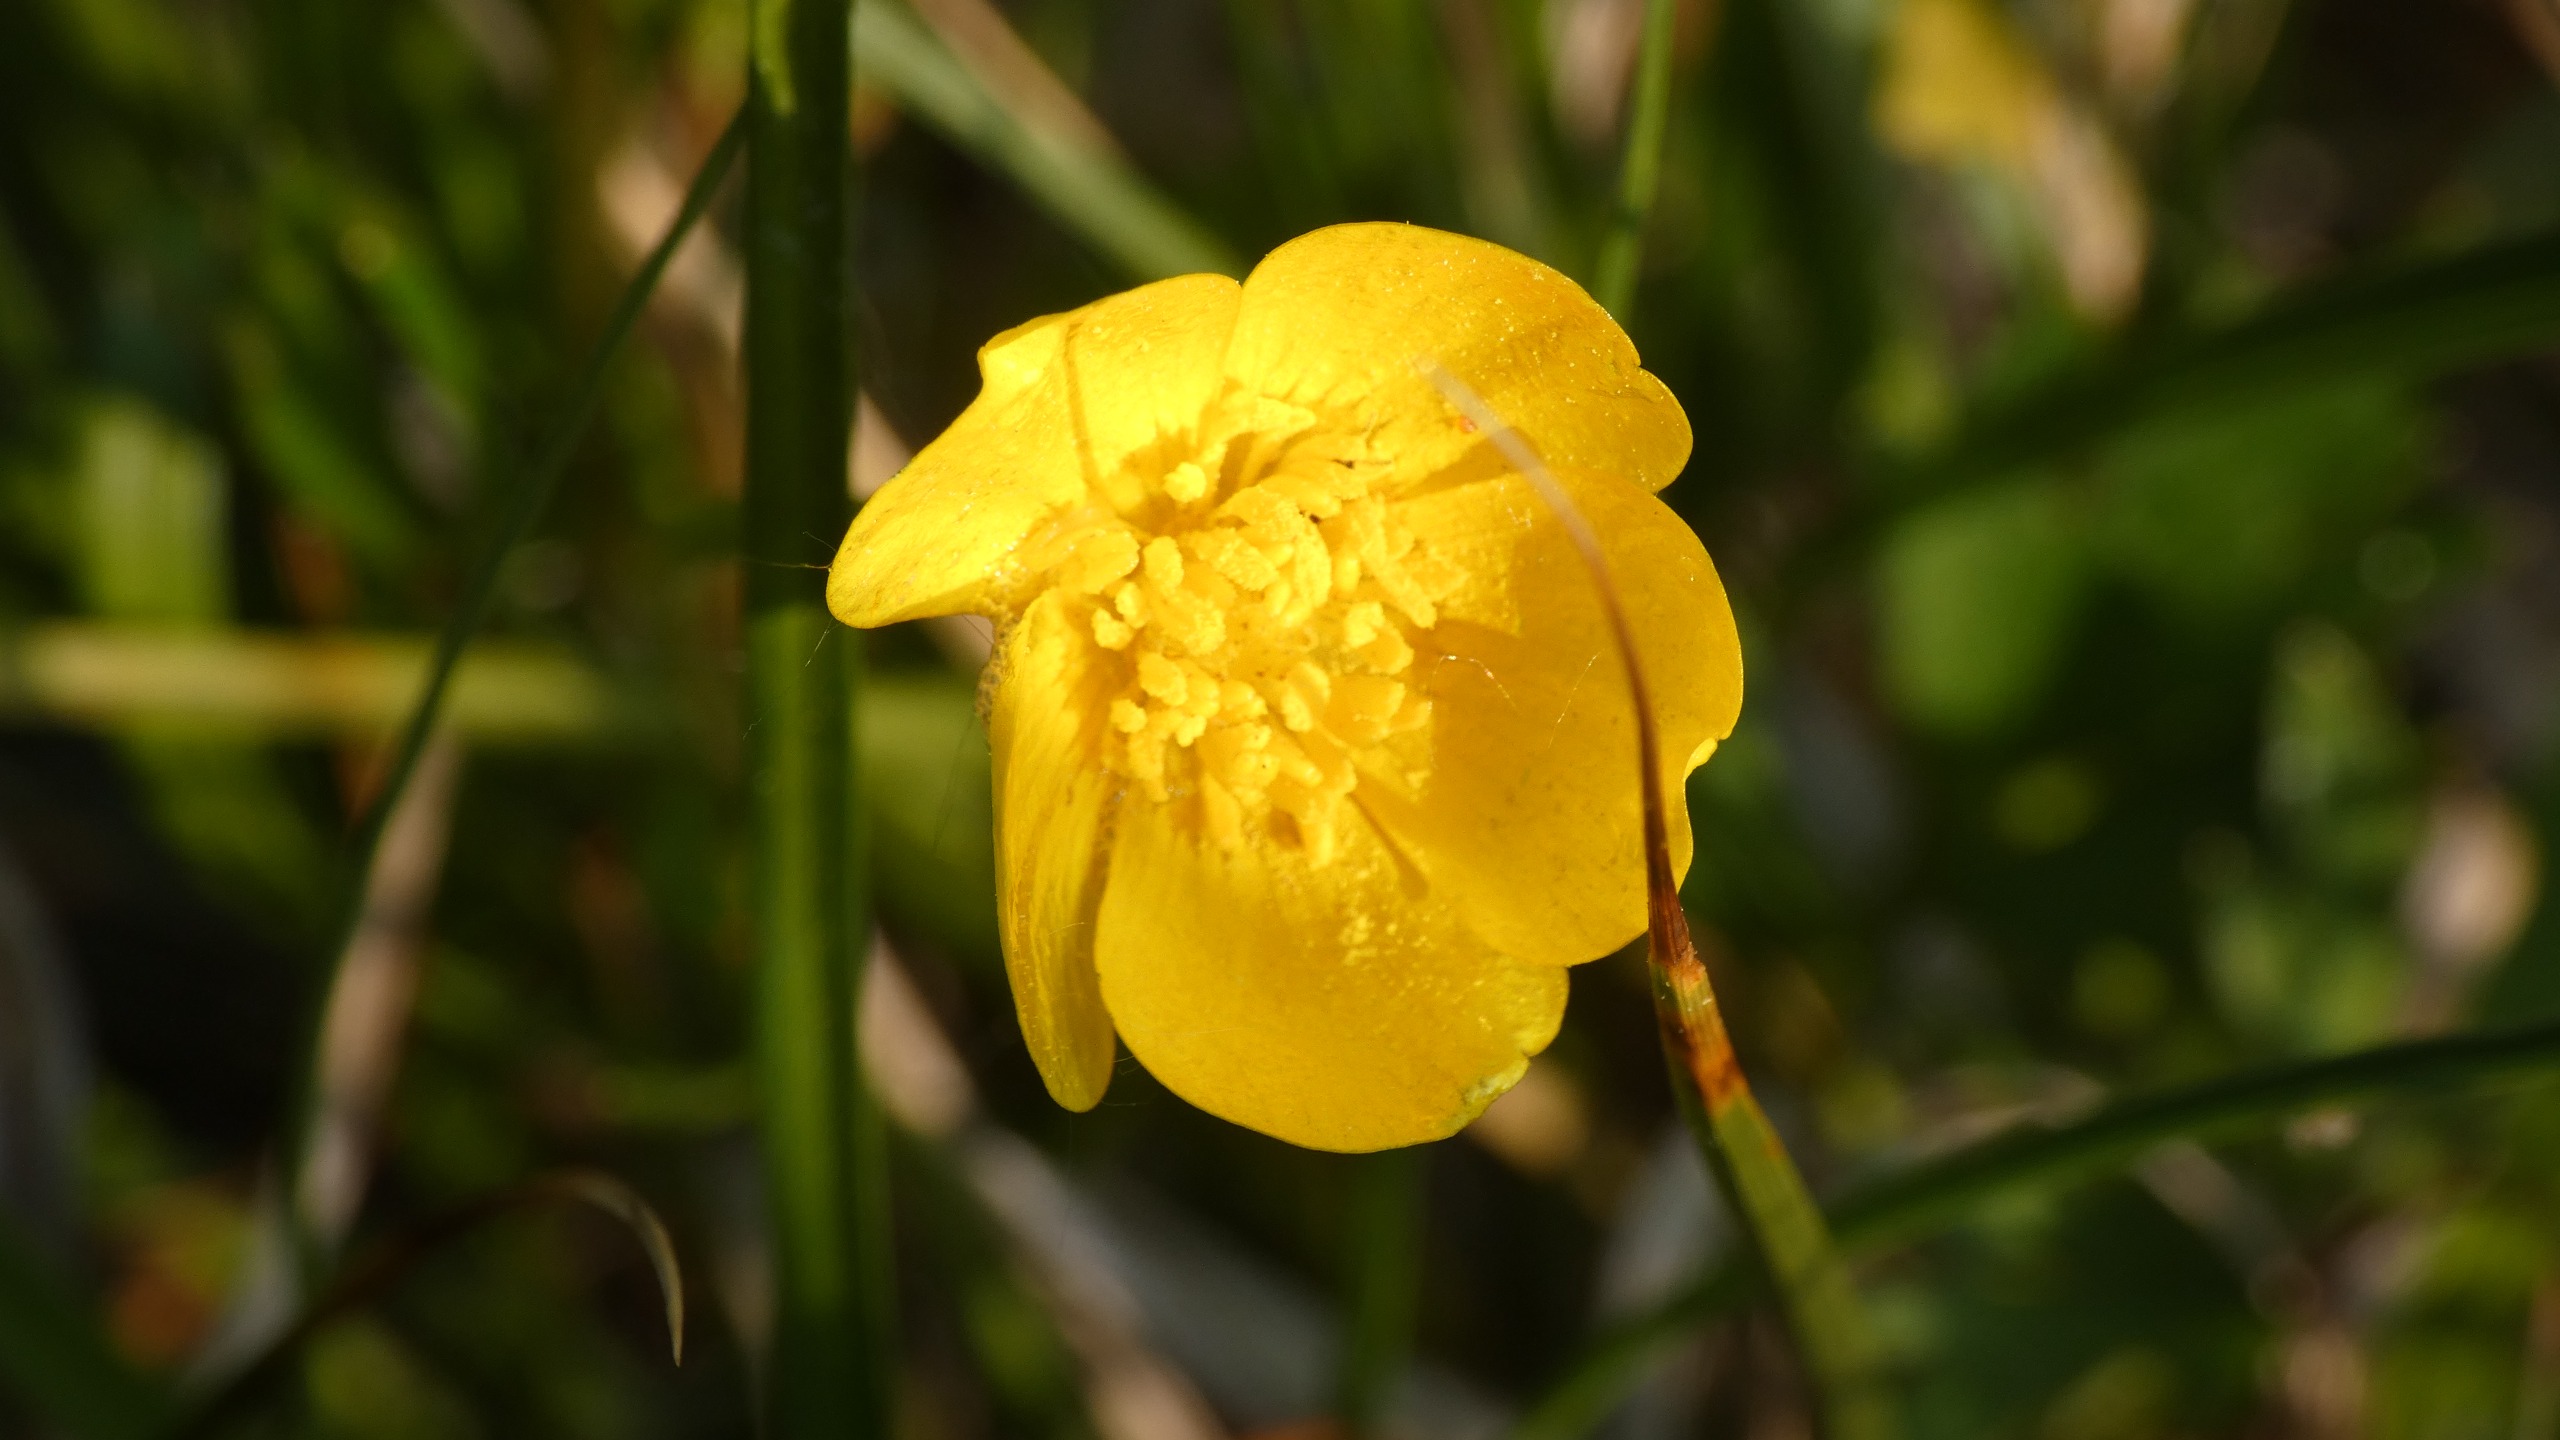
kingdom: Plantae
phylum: Tracheophyta
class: Magnoliopsida
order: Ranunculales
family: Ranunculaceae
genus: Ranunculus
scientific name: Ranunculus repens
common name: Lav ranunkel
